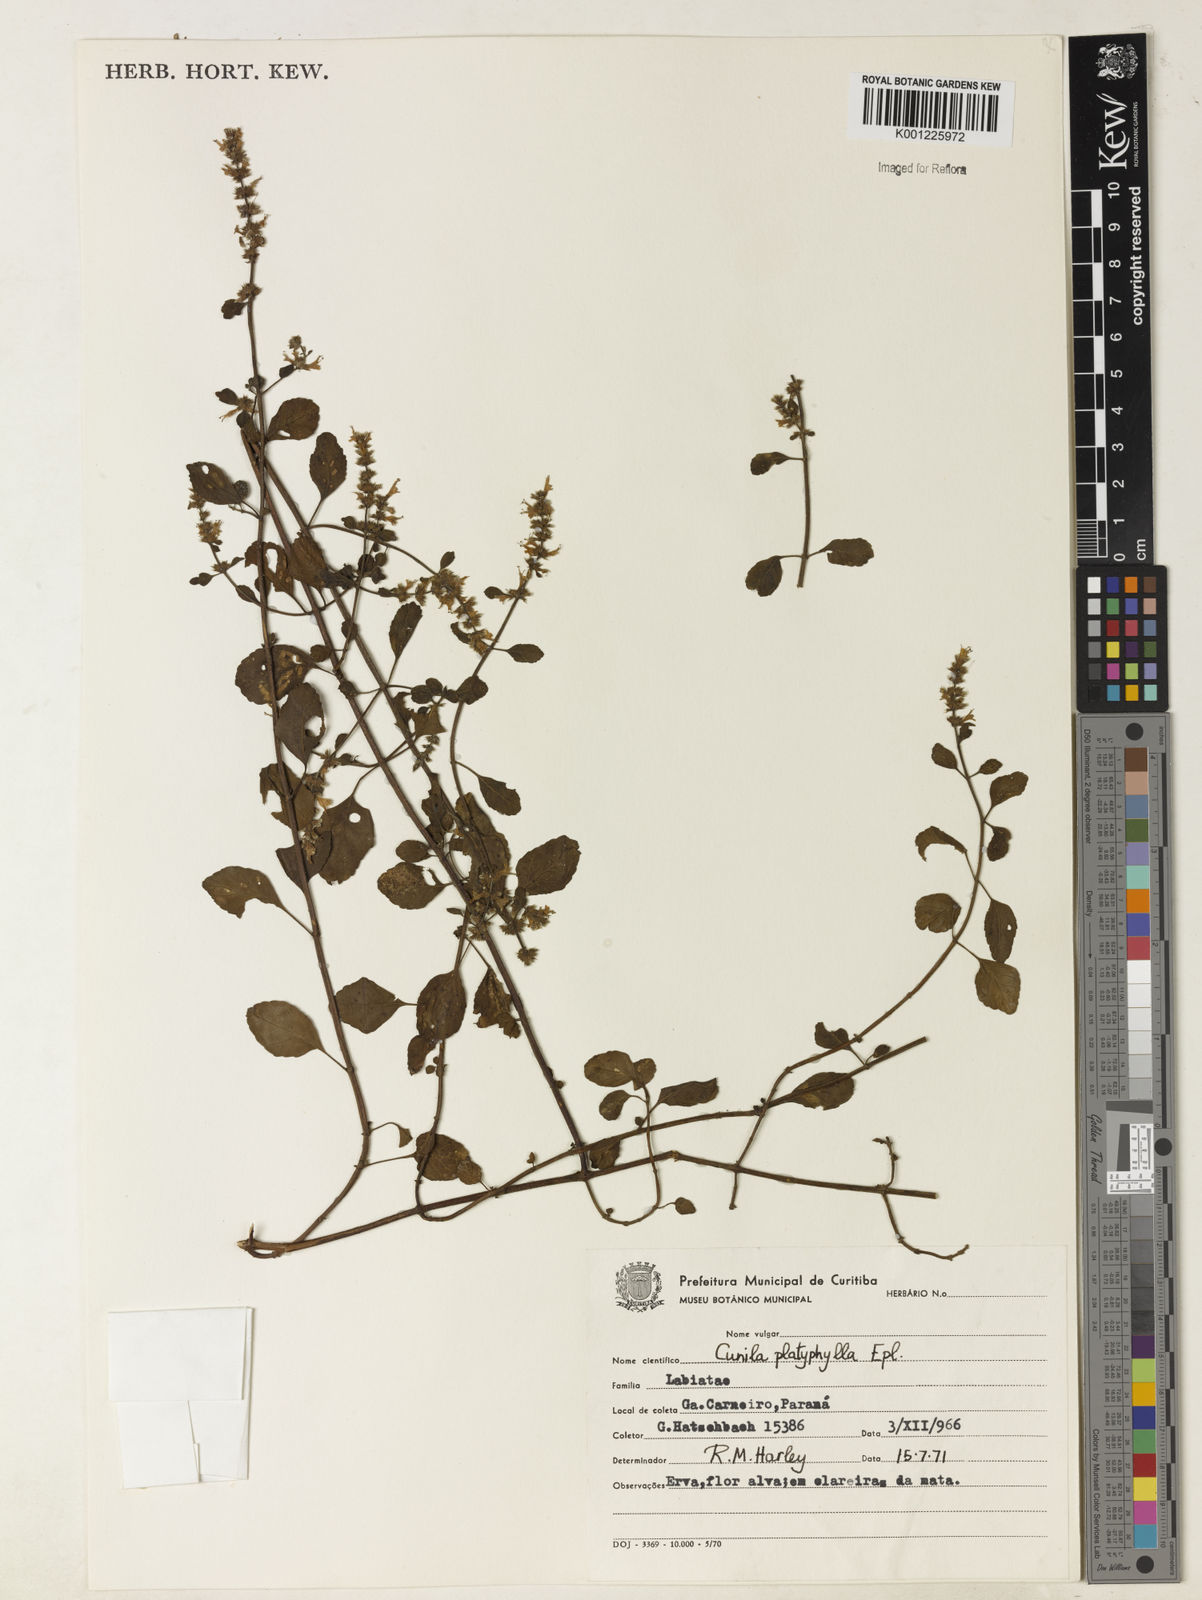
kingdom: Plantae
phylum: Tracheophyta
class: Magnoliopsida
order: Lamiales
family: Lamiaceae
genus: Cunila
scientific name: Cunila platyphylla
